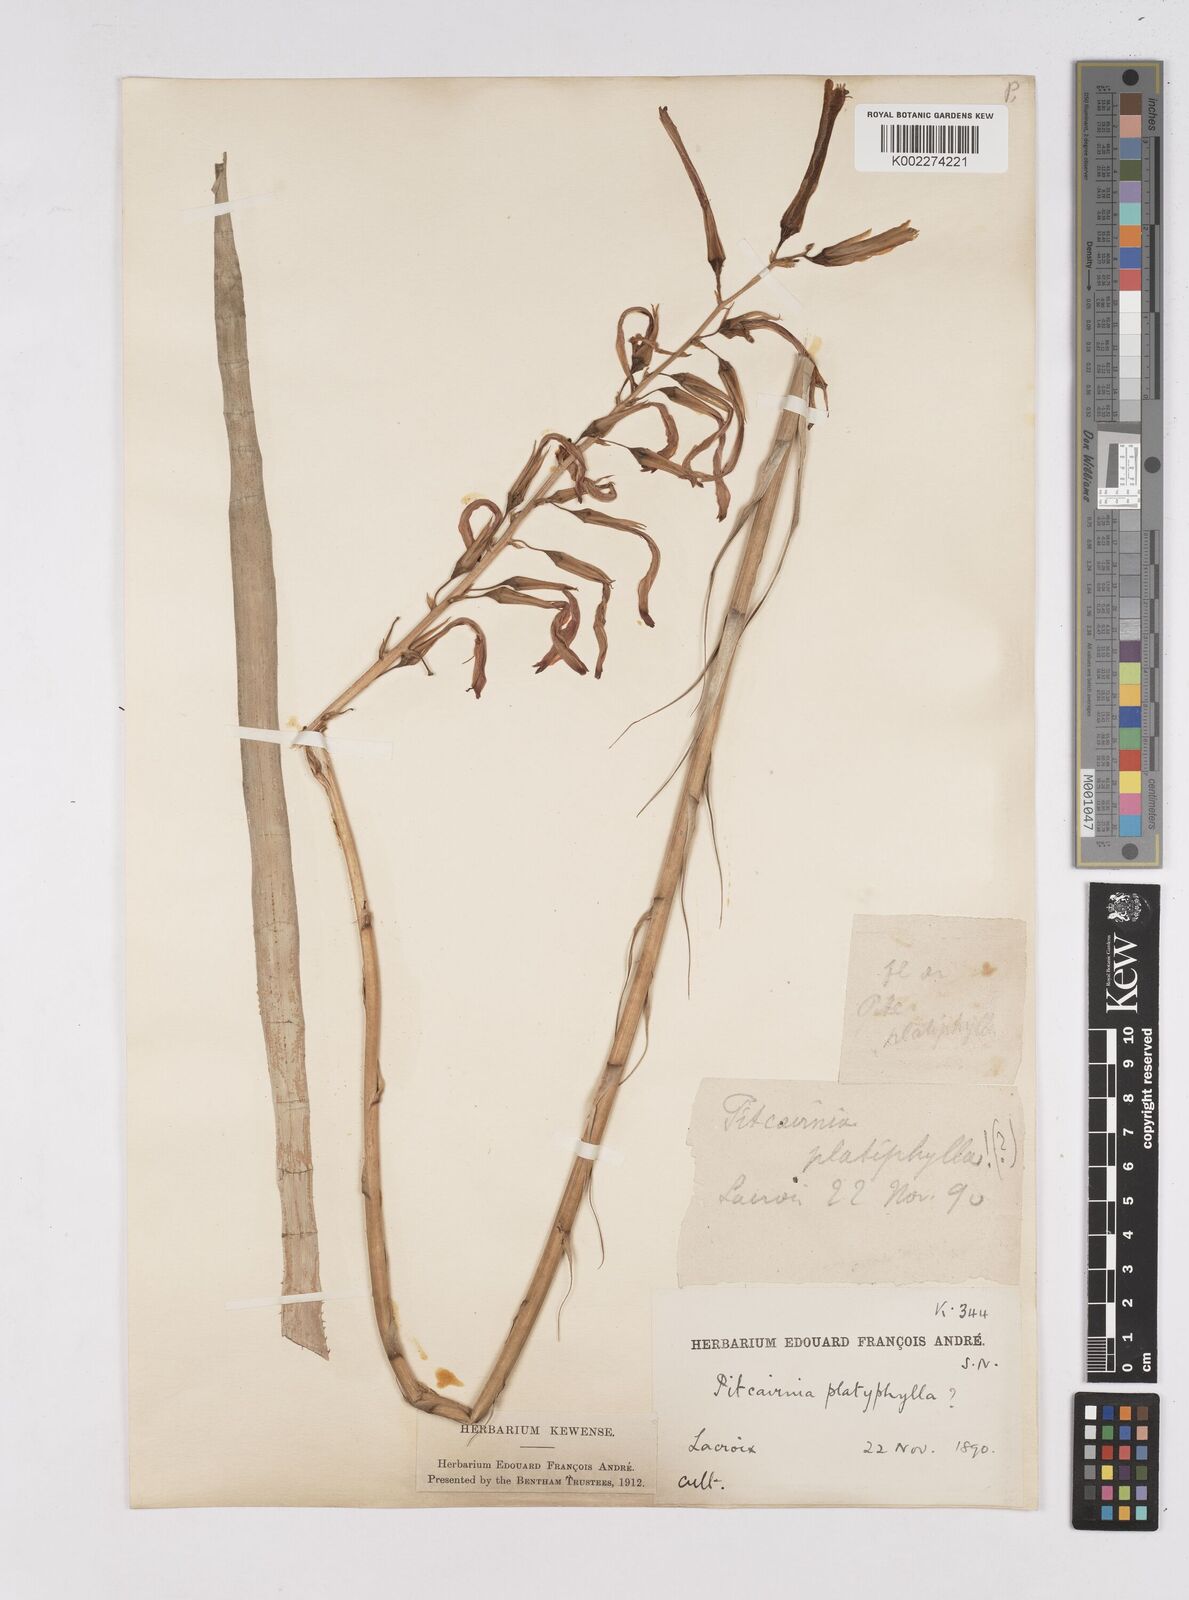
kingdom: Plantae
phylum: Tracheophyta
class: Liliopsida
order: Poales
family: Bromeliaceae
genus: Pitcairnia
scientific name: Pitcairnia angustifolia
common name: Clapper
